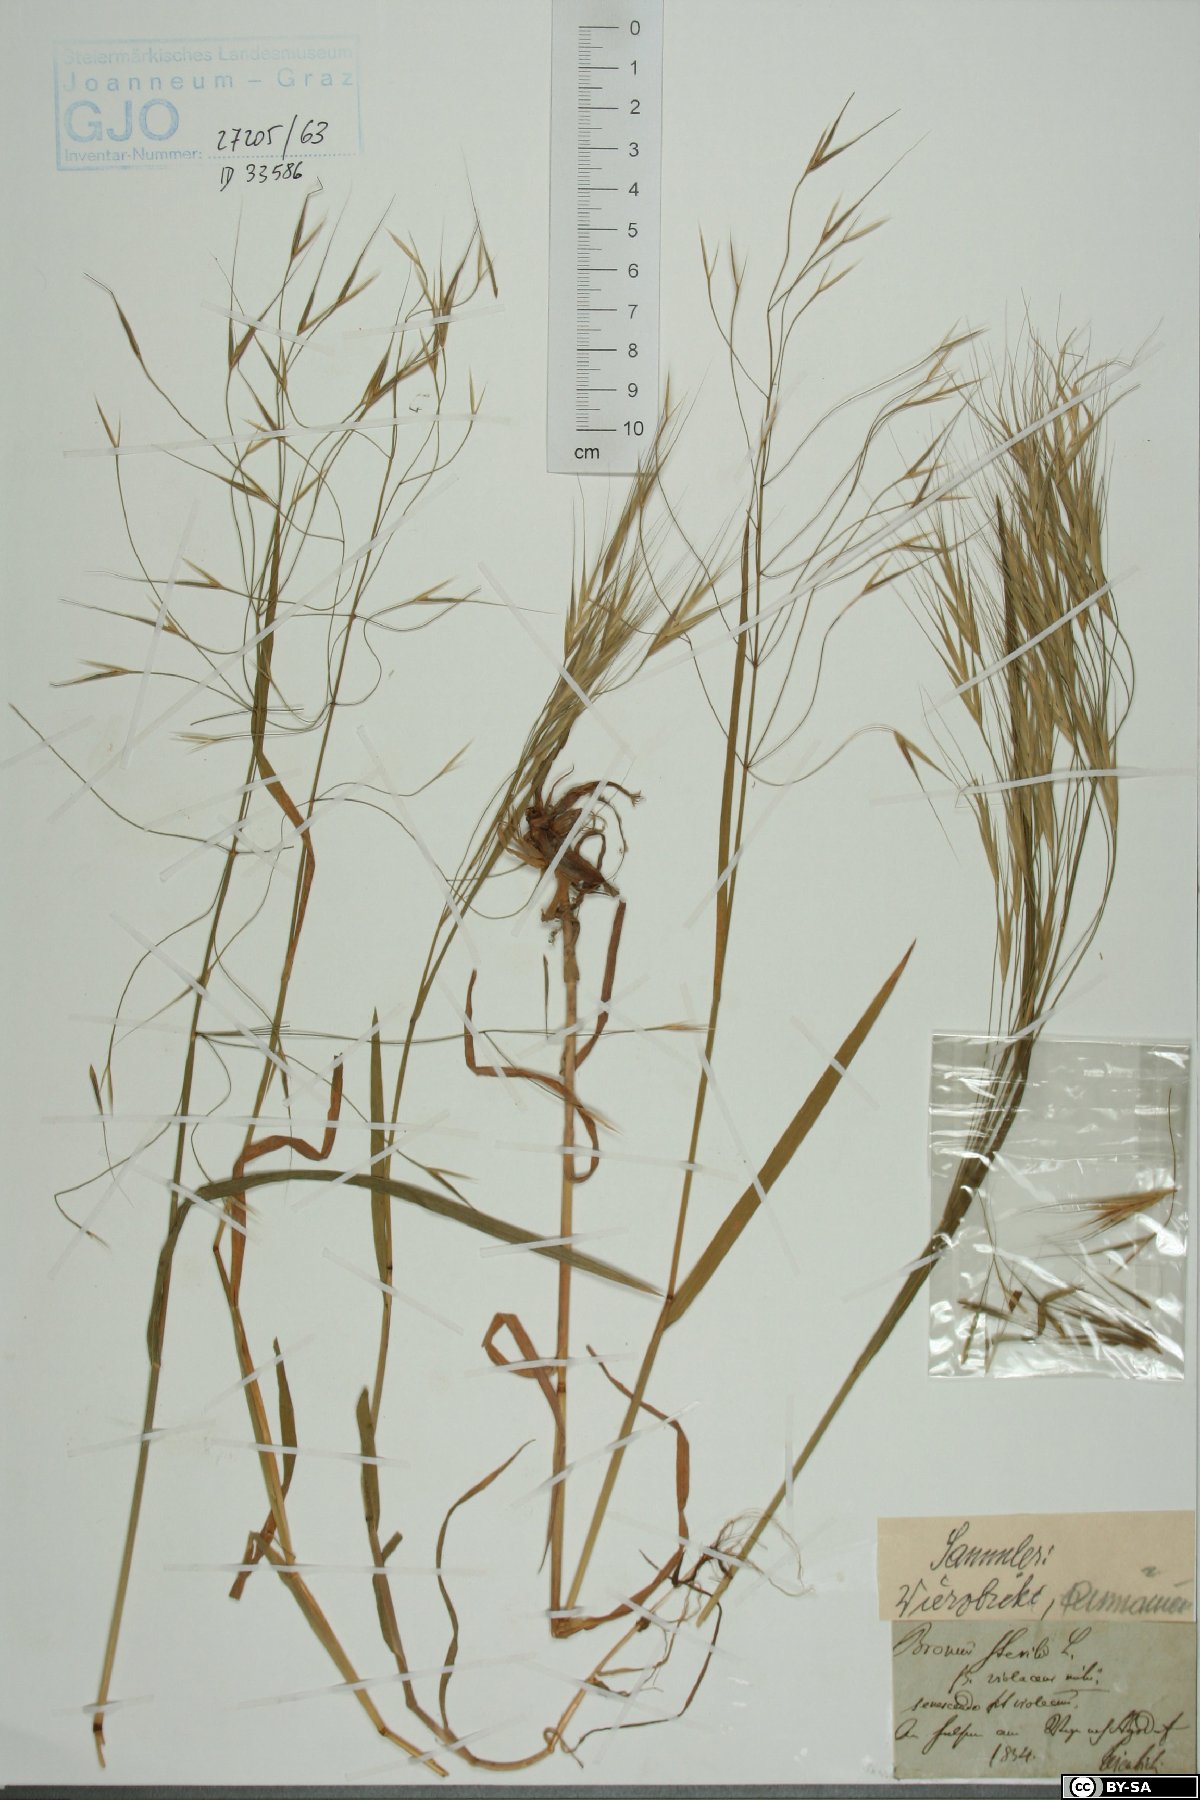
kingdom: Plantae
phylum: Tracheophyta
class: Liliopsida
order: Poales
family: Poaceae
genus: Bromus
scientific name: Bromus sterilis
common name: Poverty brome
